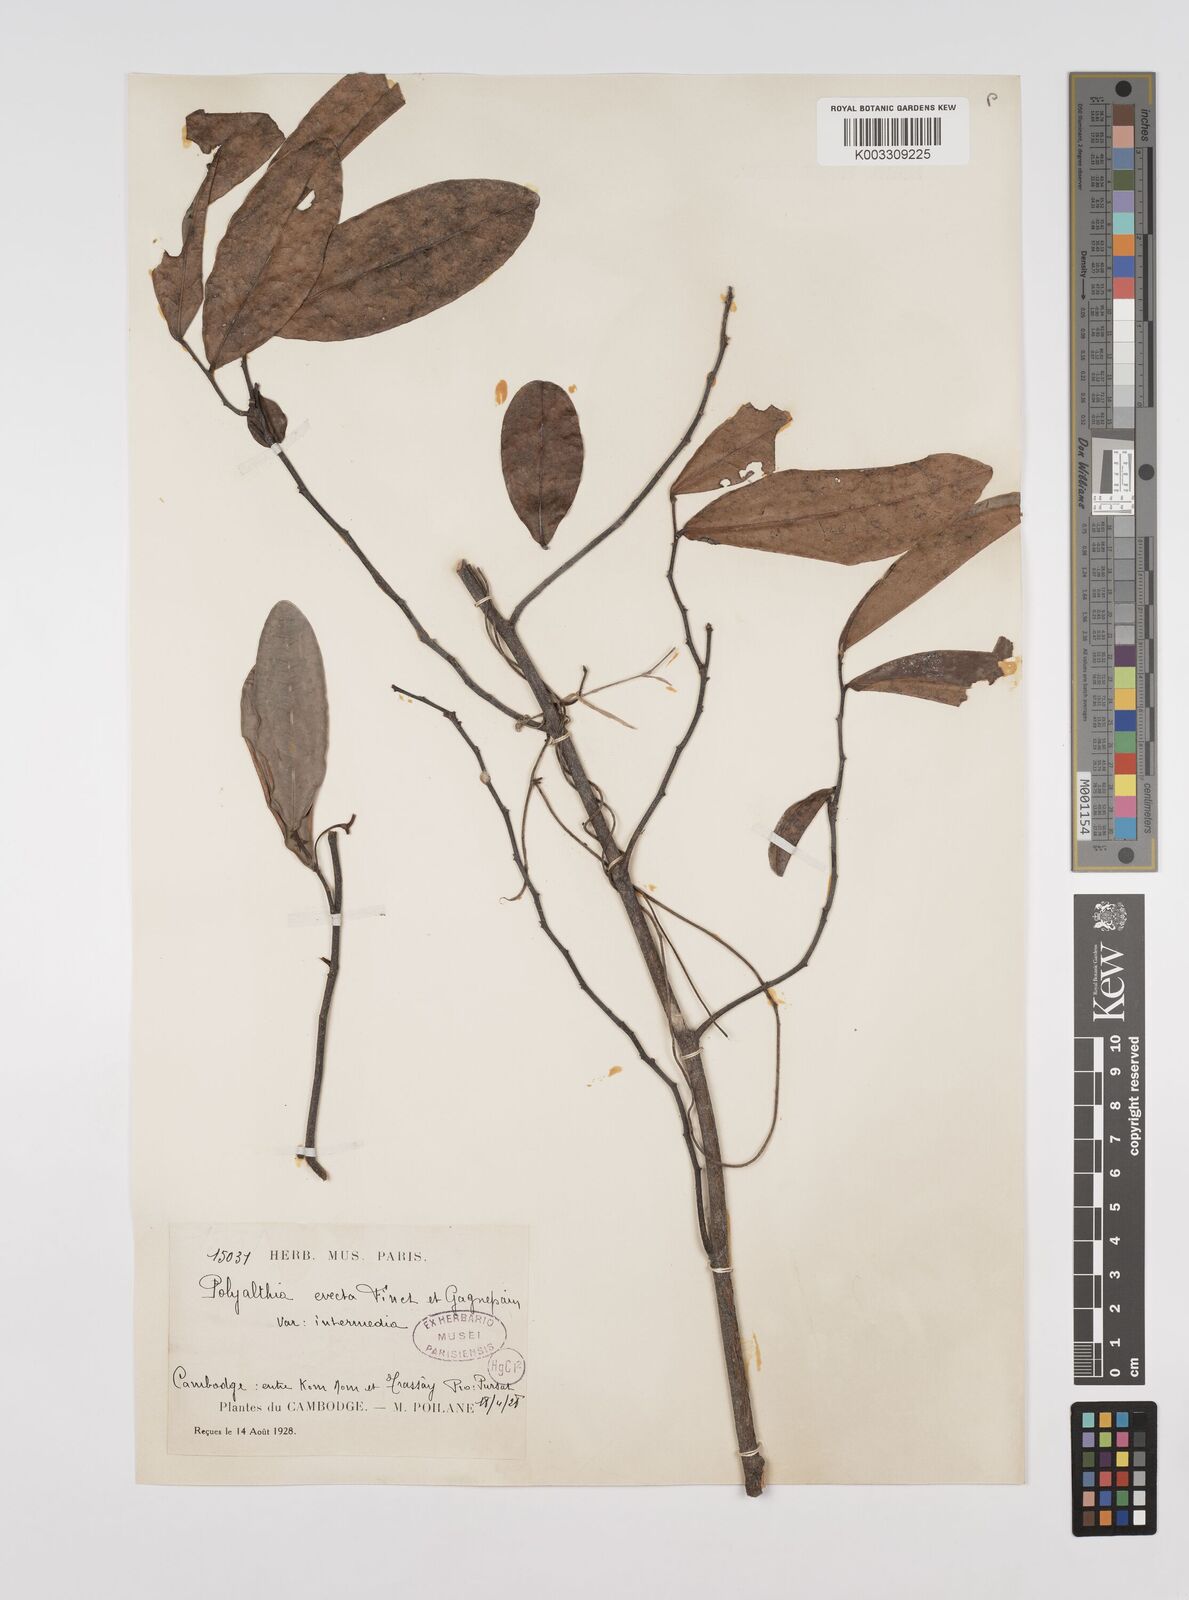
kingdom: Plantae
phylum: Tracheophyta
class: Magnoliopsida
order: Magnoliales
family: Annonaceae
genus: Polyalthia
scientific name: Polyalthia evecta
